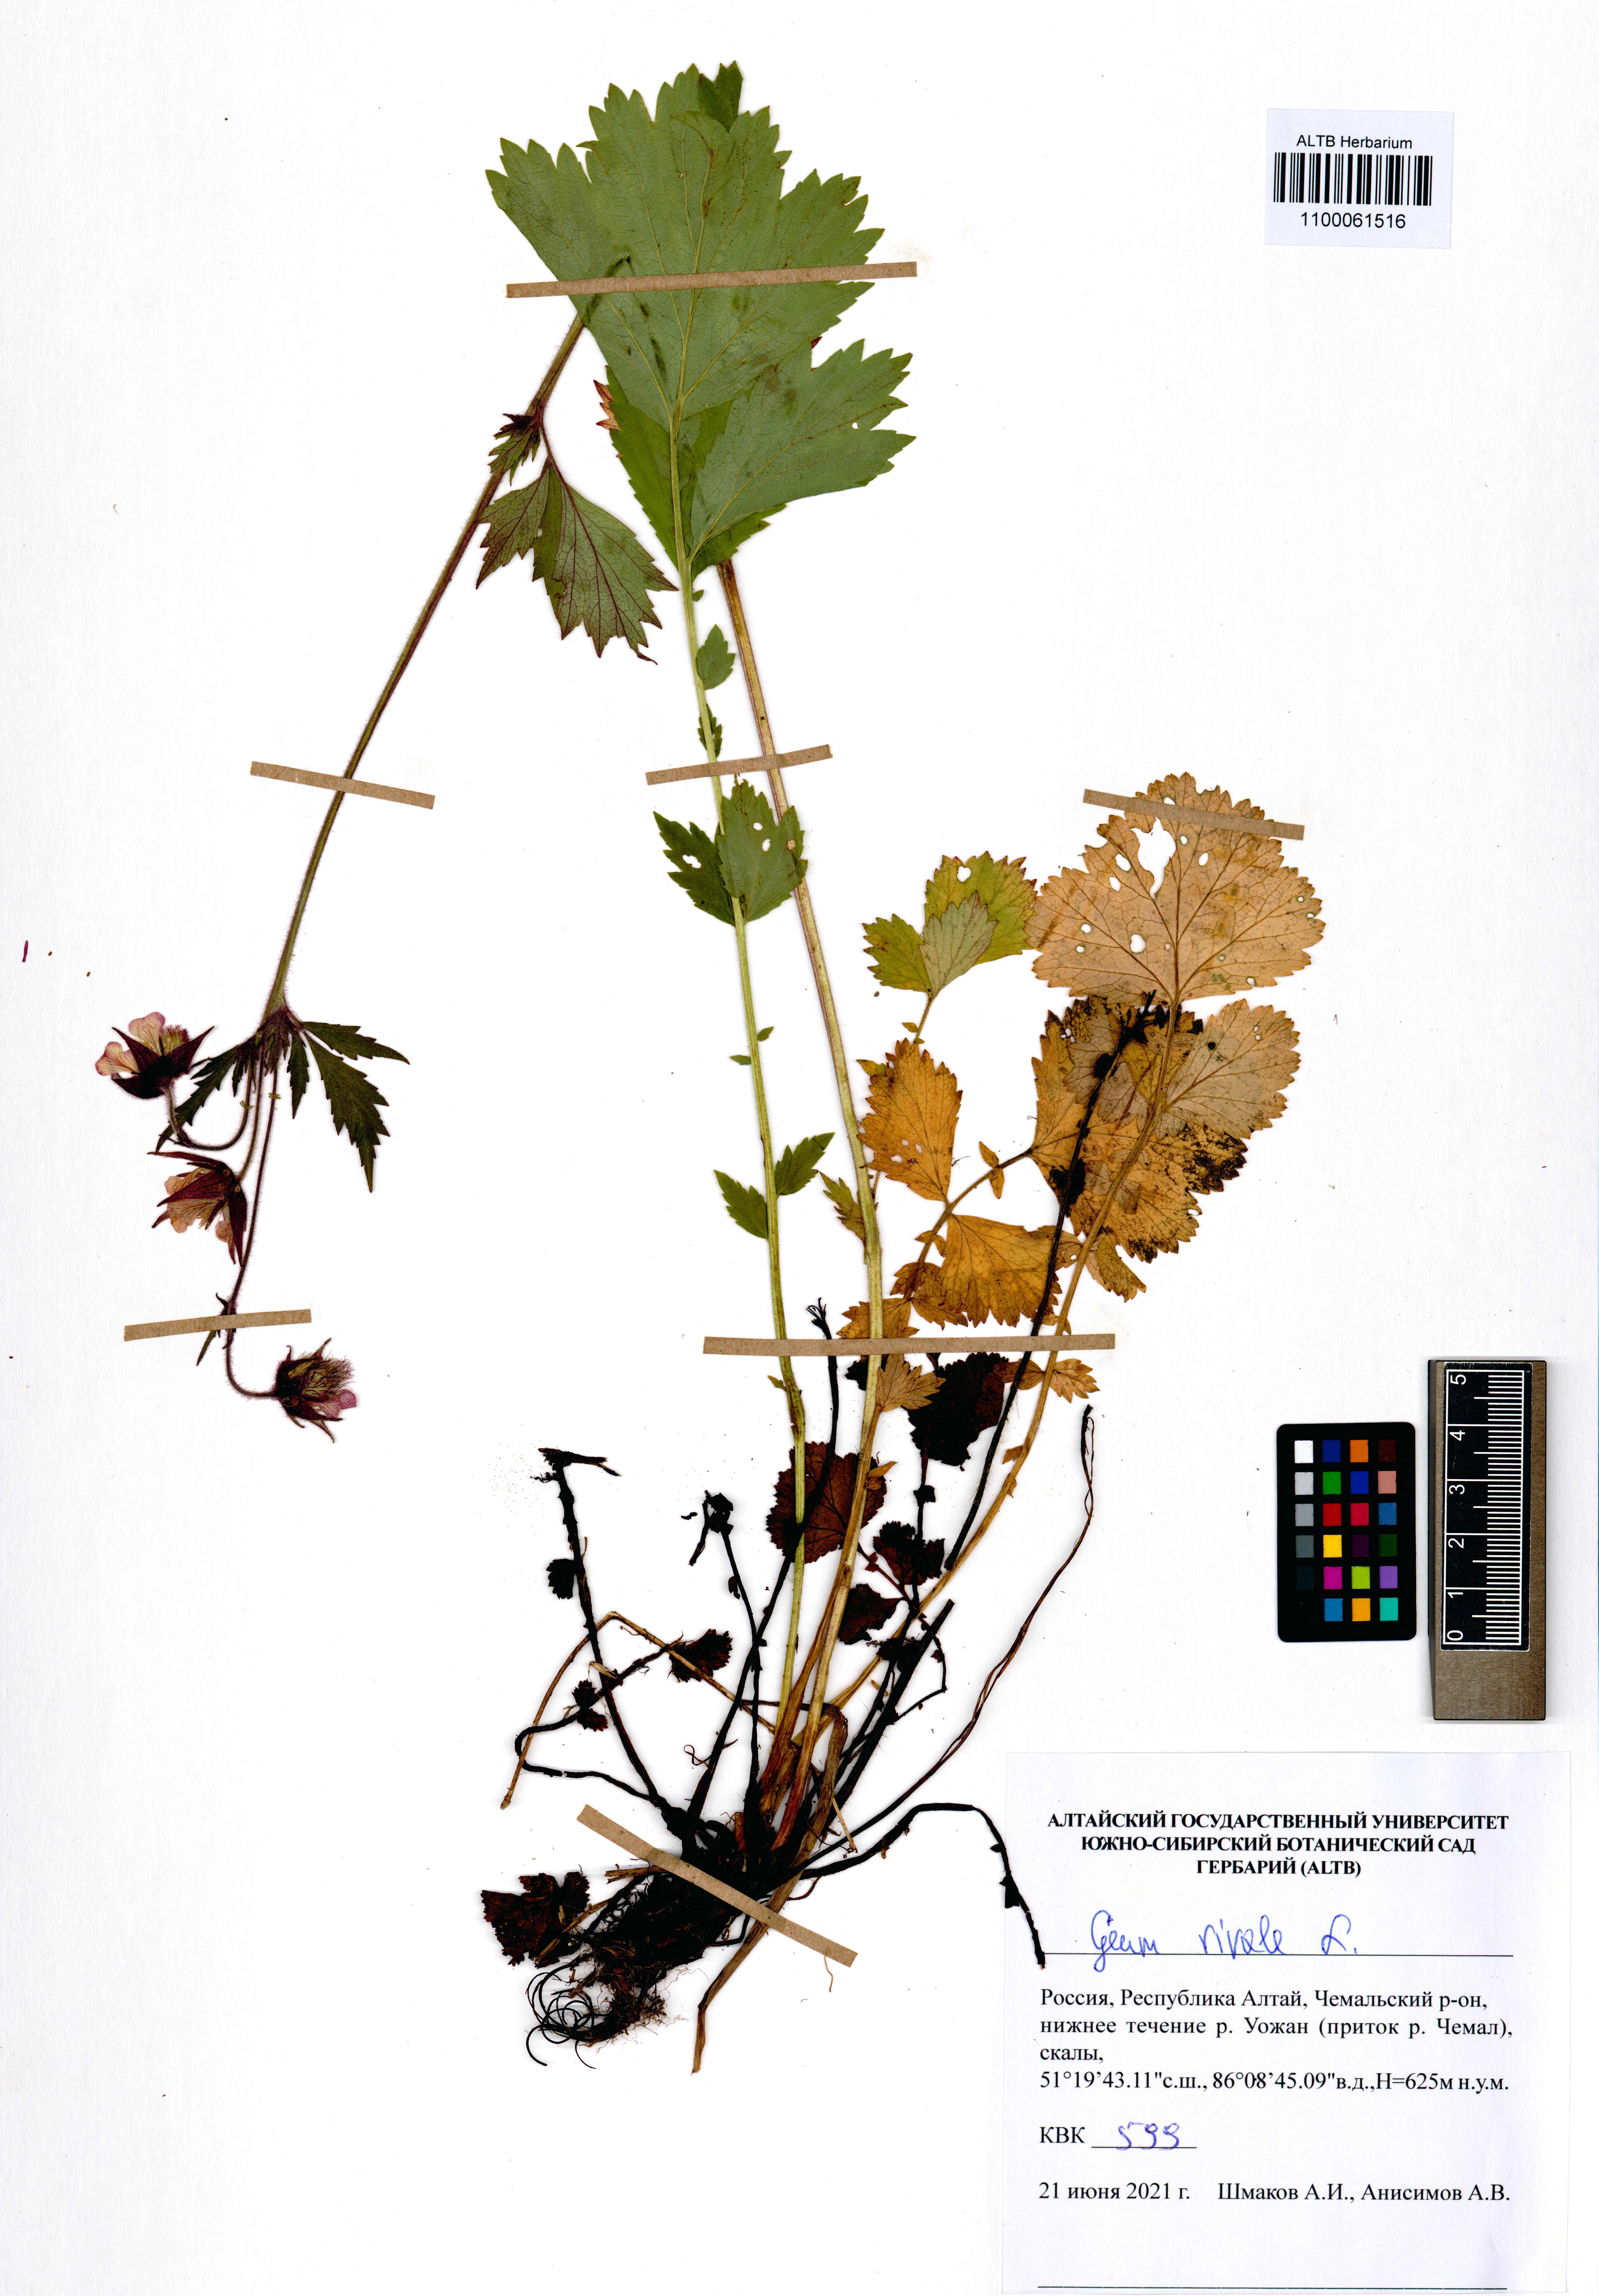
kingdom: Plantae
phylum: Tracheophyta
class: Magnoliopsida
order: Rosales
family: Rosaceae
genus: Geum
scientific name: Geum rivale
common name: Water avens
